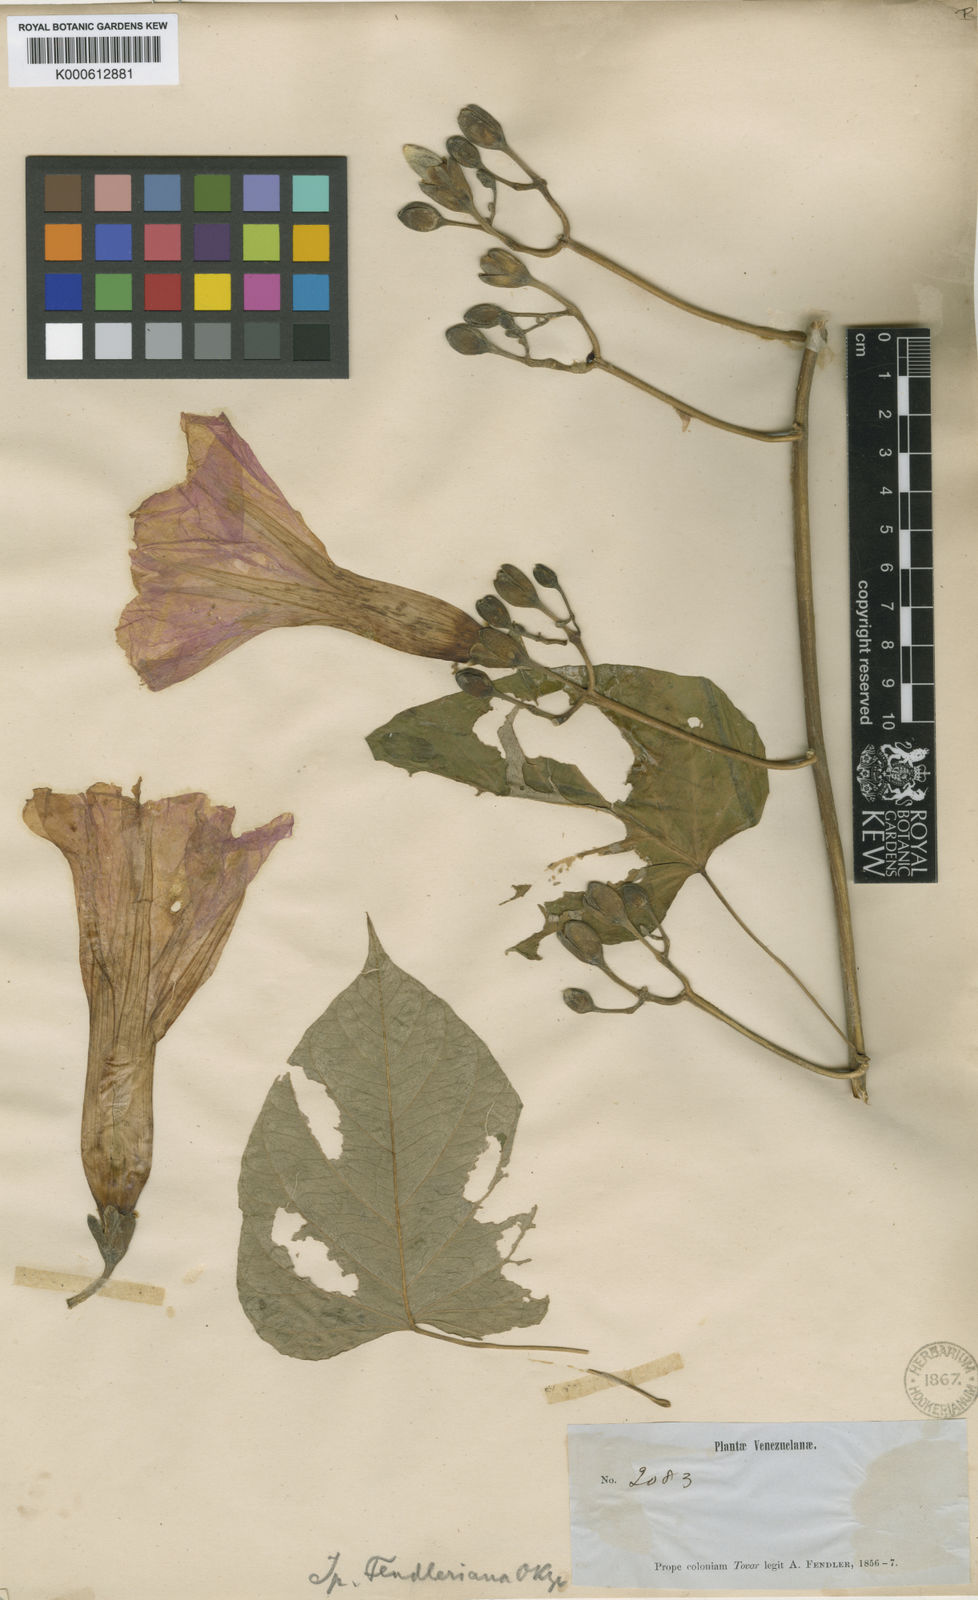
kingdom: Plantae
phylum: Tracheophyta
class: Magnoliopsida
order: Solanales
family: Convolvulaceae
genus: Ipomoea
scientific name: Ipomoea jalapa
